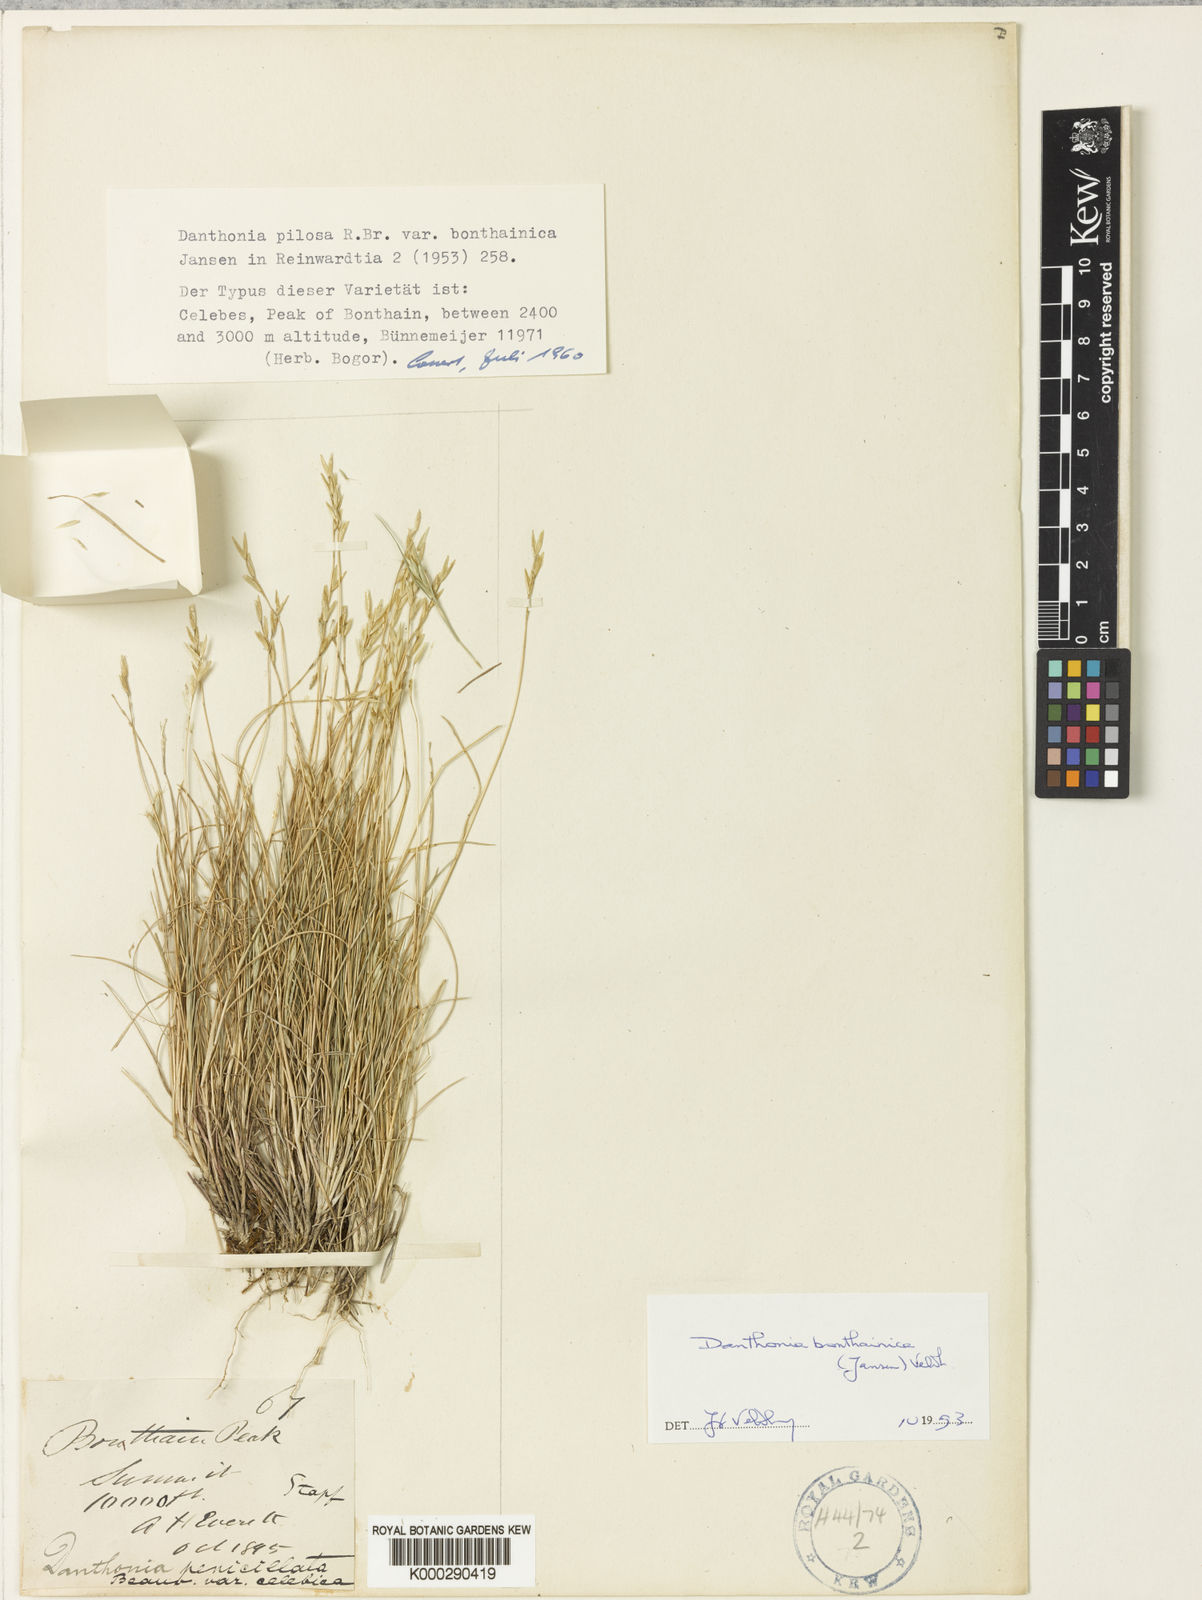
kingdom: Plantae
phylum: Tracheophyta
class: Liliopsida
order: Poales
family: Poaceae
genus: Rytidosperma
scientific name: Rytidosperma bonthainicum
